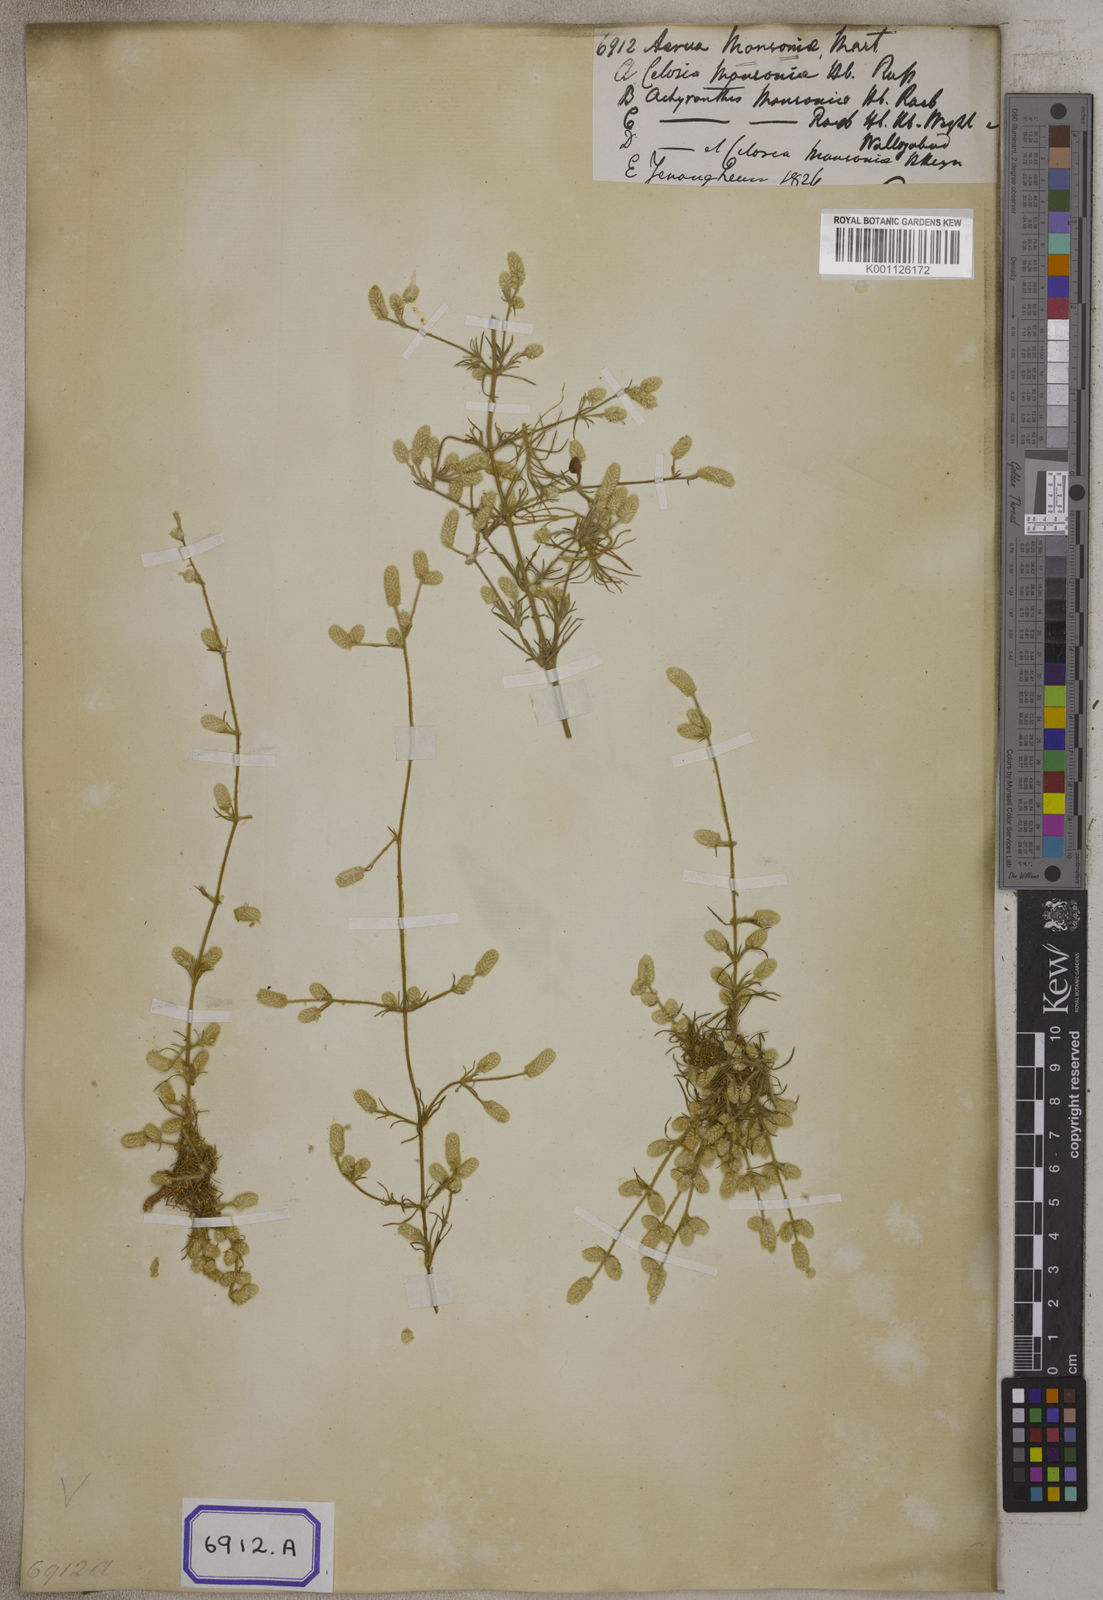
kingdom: Plantae
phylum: Tracheophyta
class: Magnoliopsida
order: Caryophyllales
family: Amaranthaceae
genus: Aerva
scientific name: Aerva
